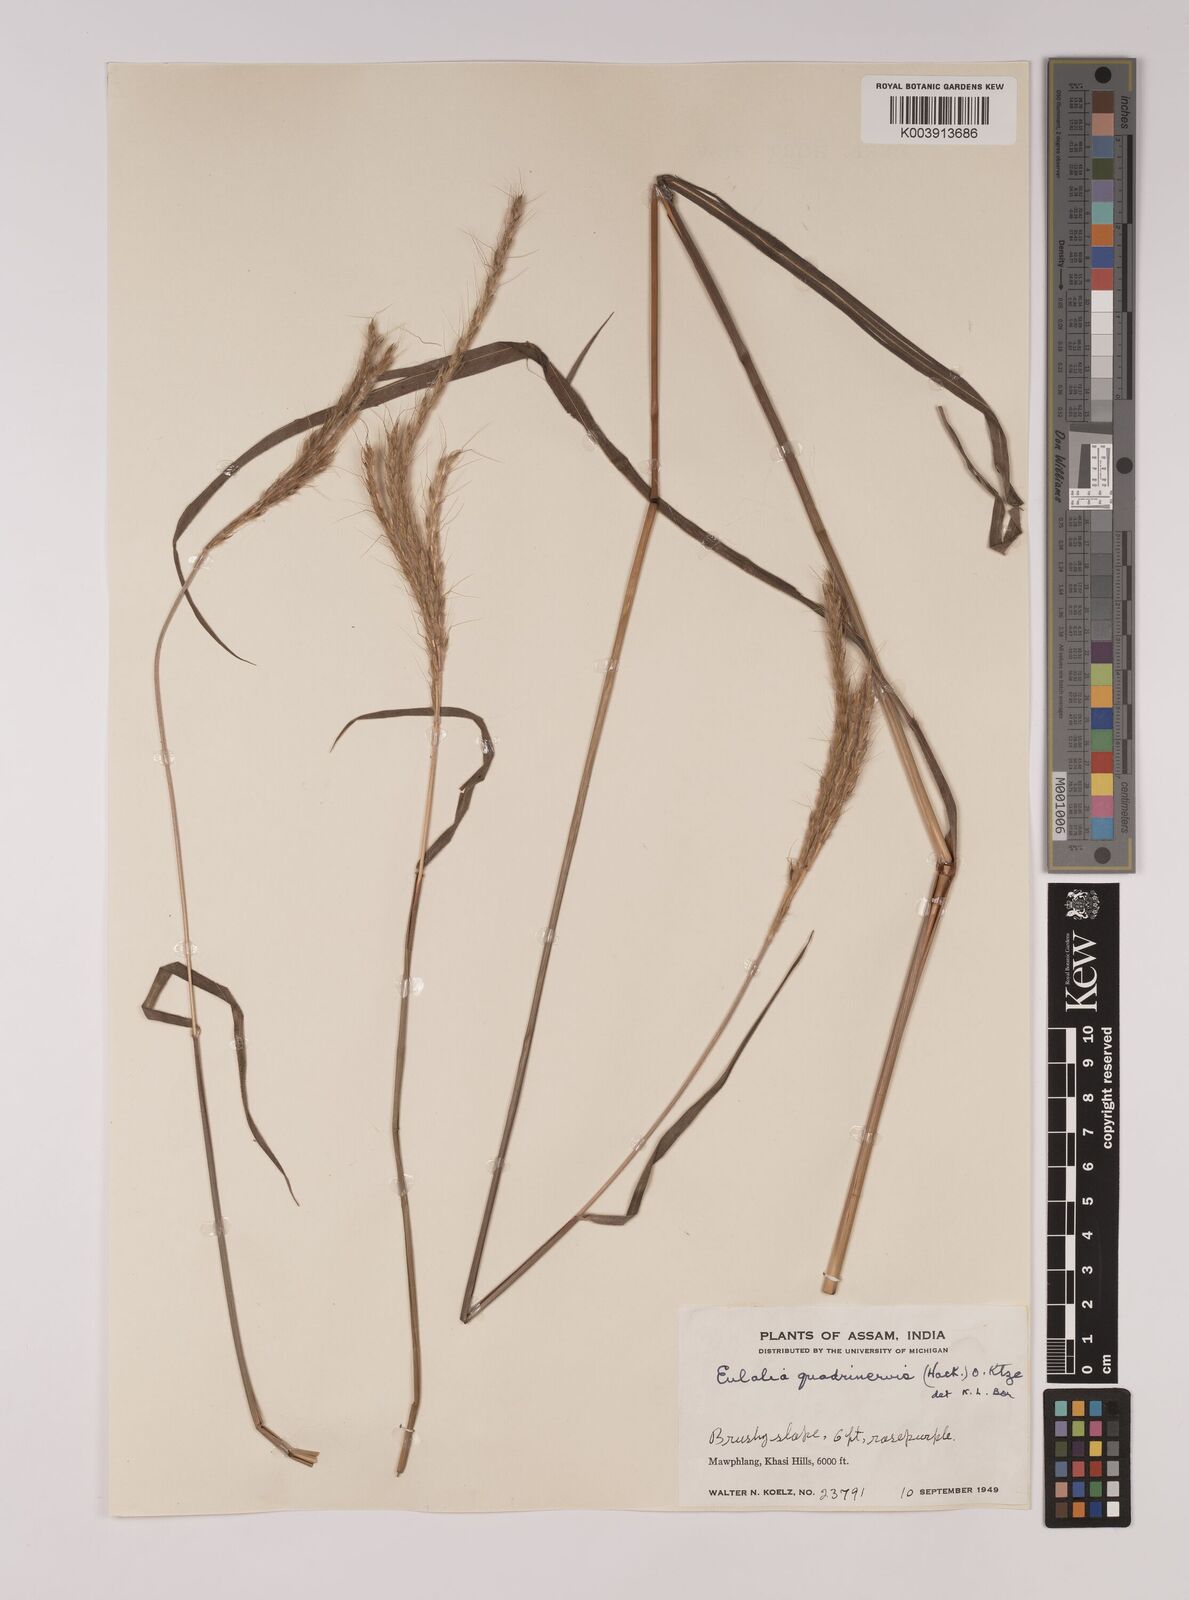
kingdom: Plantae
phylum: Tracheophyta
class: Liliopsida
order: Poales
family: Poaceae
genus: Pseudopogonatherum
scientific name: Pseudopogonatherum quadrinerve
